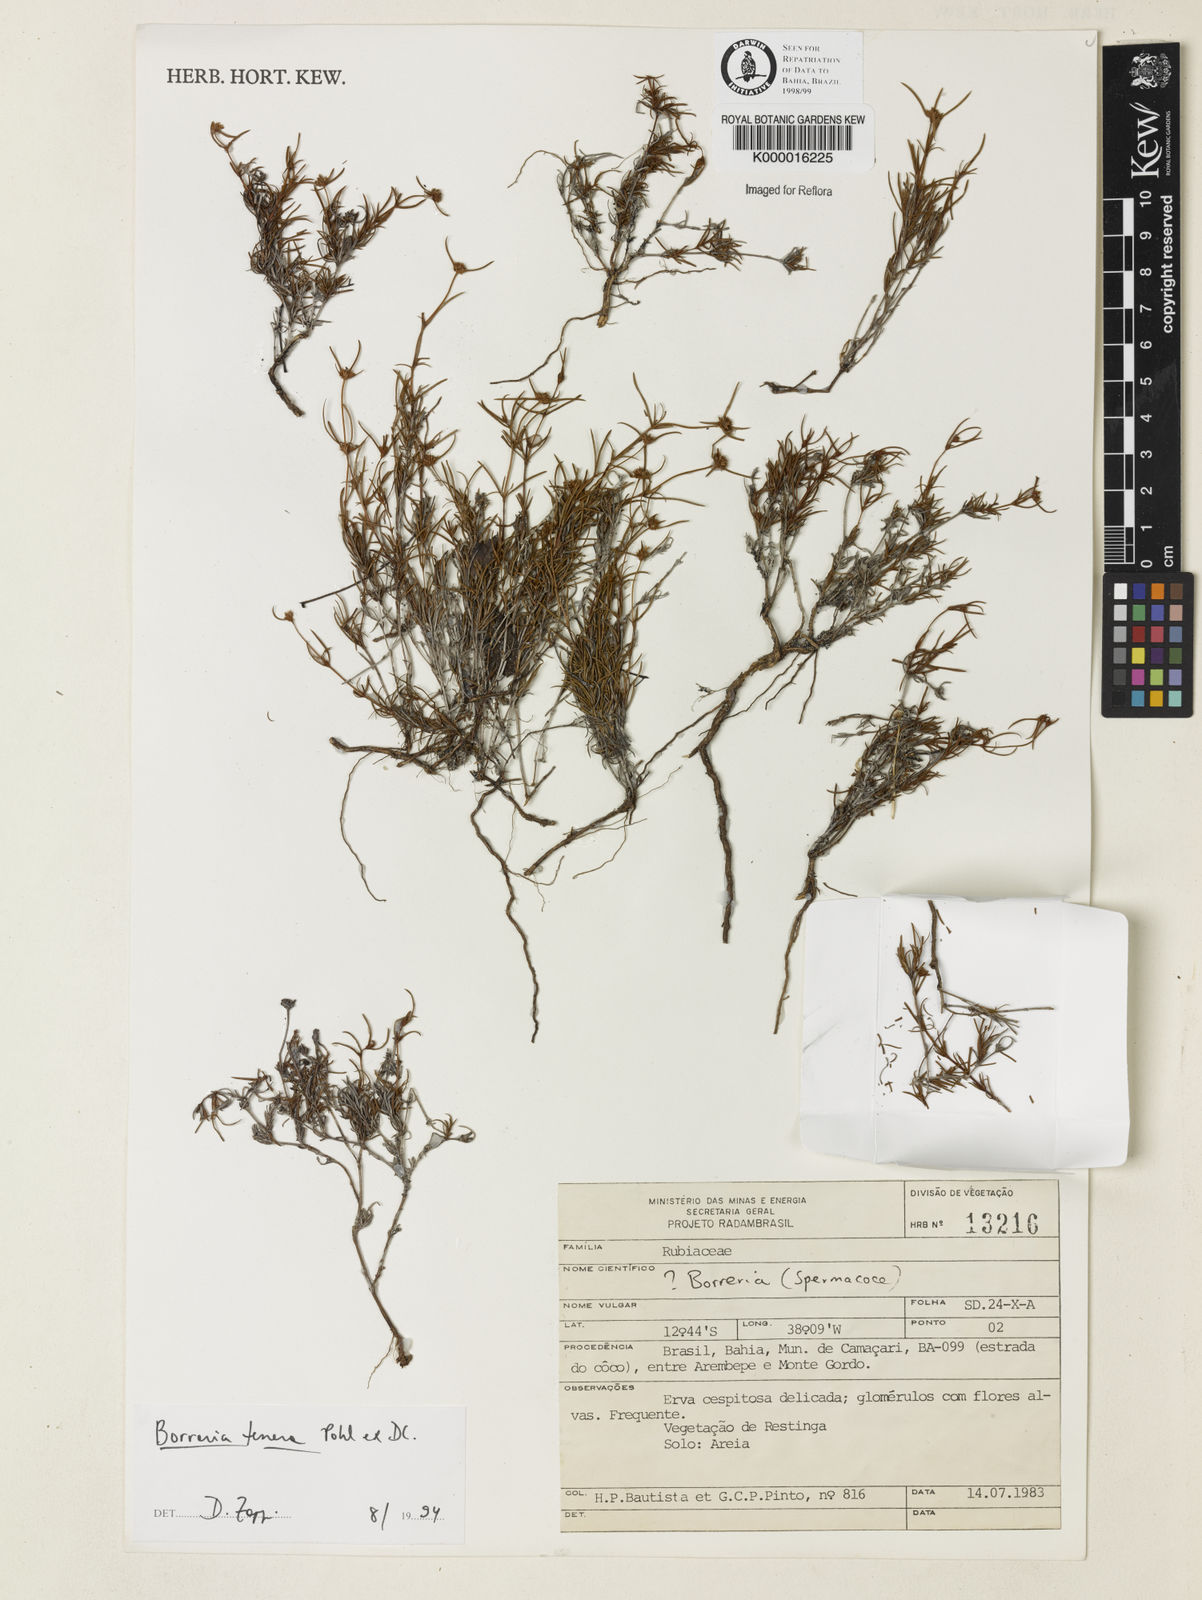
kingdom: Plantae
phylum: Tracheophyta
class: Magnoliopsida
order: Gentianales
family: Rubiaceae
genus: Spermacoce
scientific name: Spermacoce pohliana
